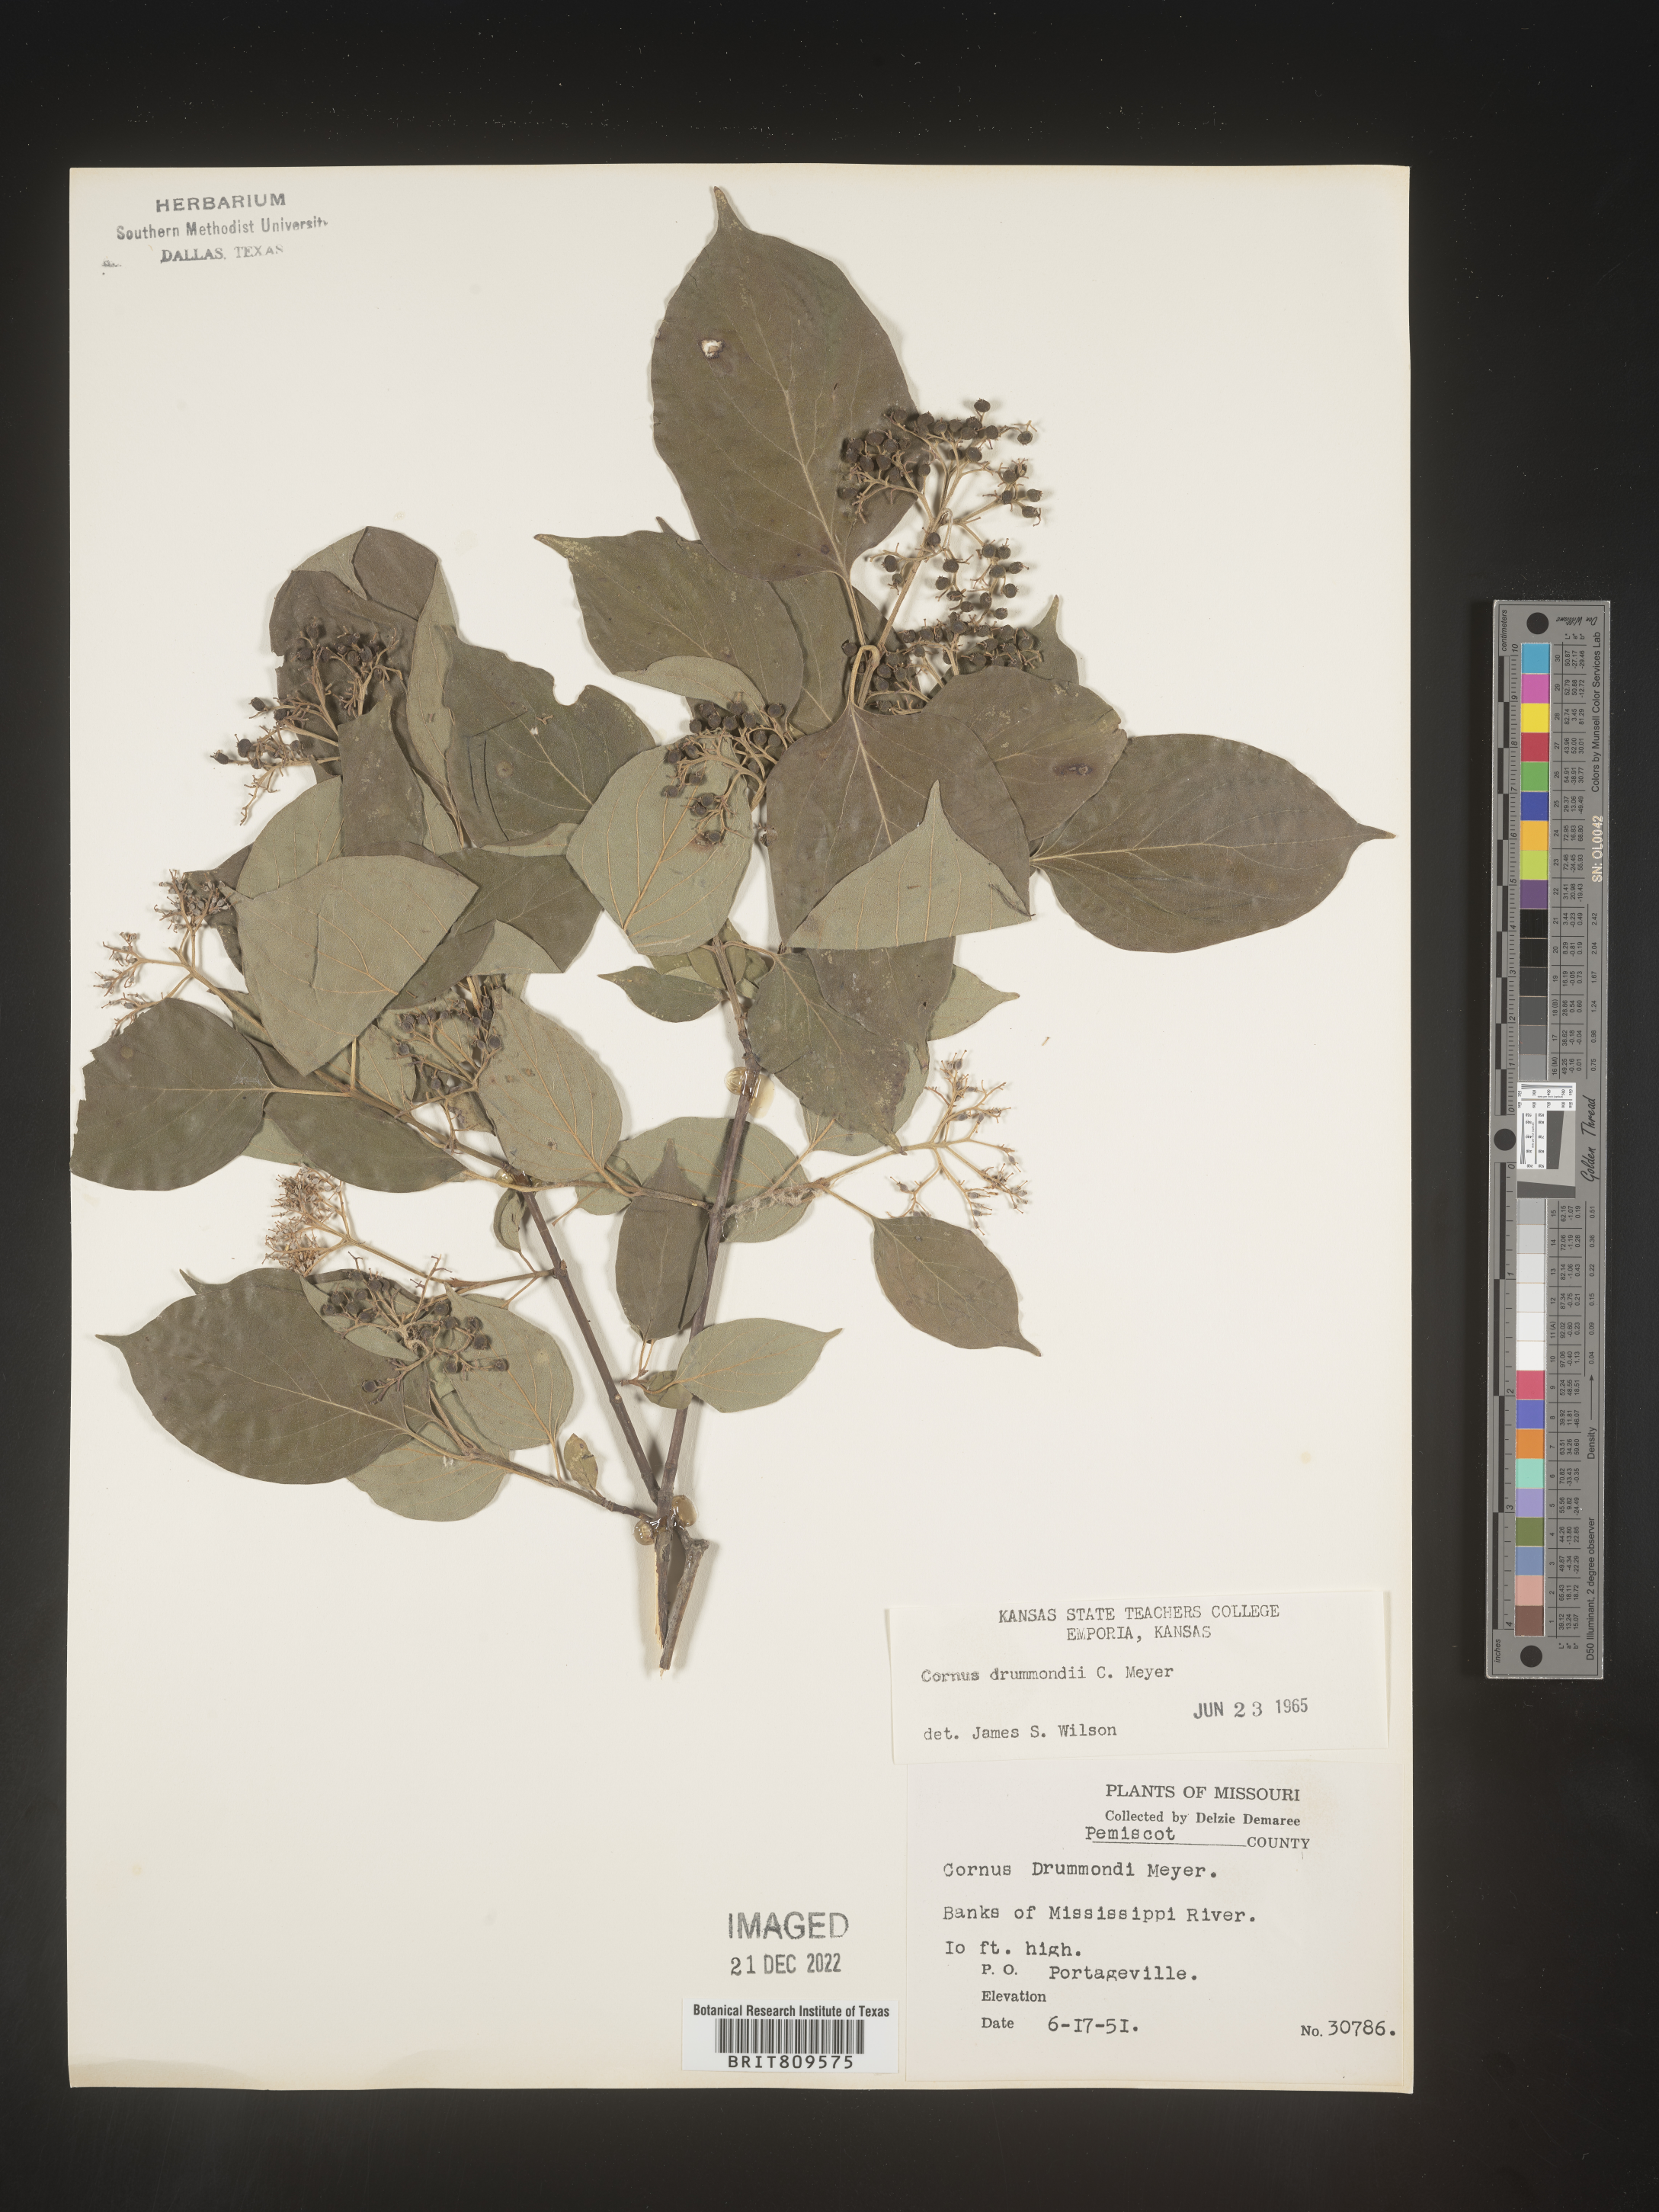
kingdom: Plantae
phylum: Tracheophyta
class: Magnoliopsida
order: Cornales
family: Cornaceae
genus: Cornus
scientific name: Cornus drummondii
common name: Rough-leaf dogwood
